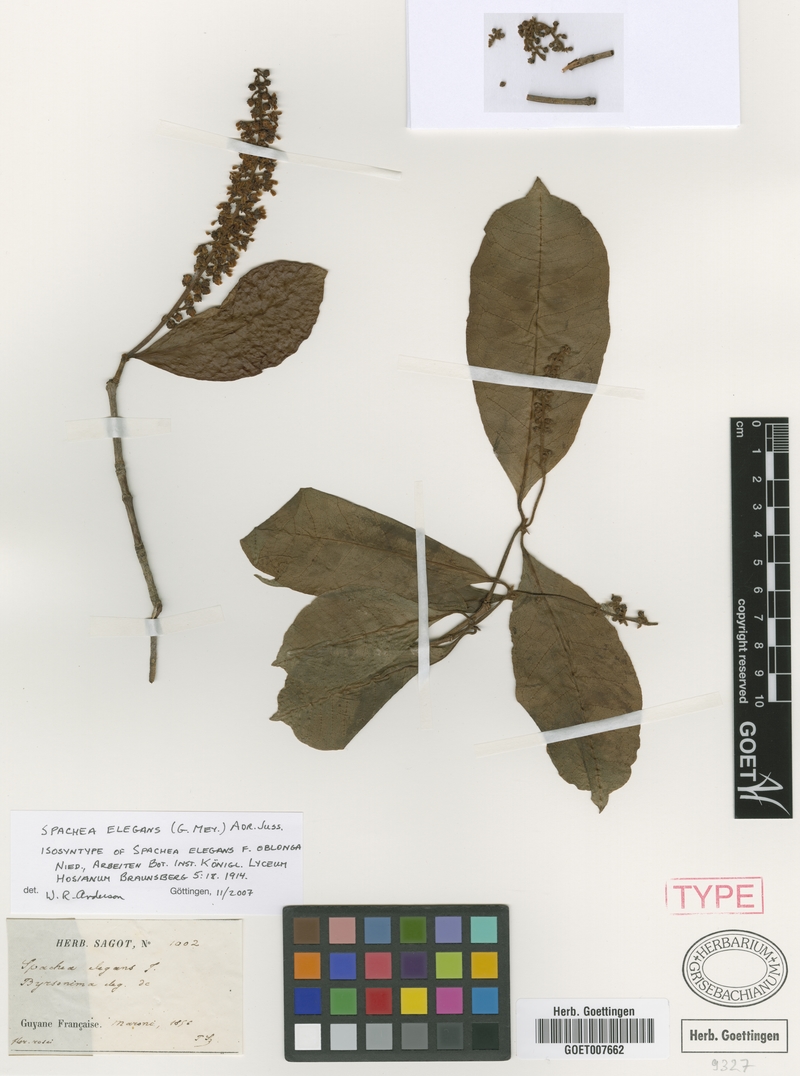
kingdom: Plantae
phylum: Tracheophyta
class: Magnoliopsida
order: Malpighiales
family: Malpighiaceae
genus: Spachea
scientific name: Spachea elegans
